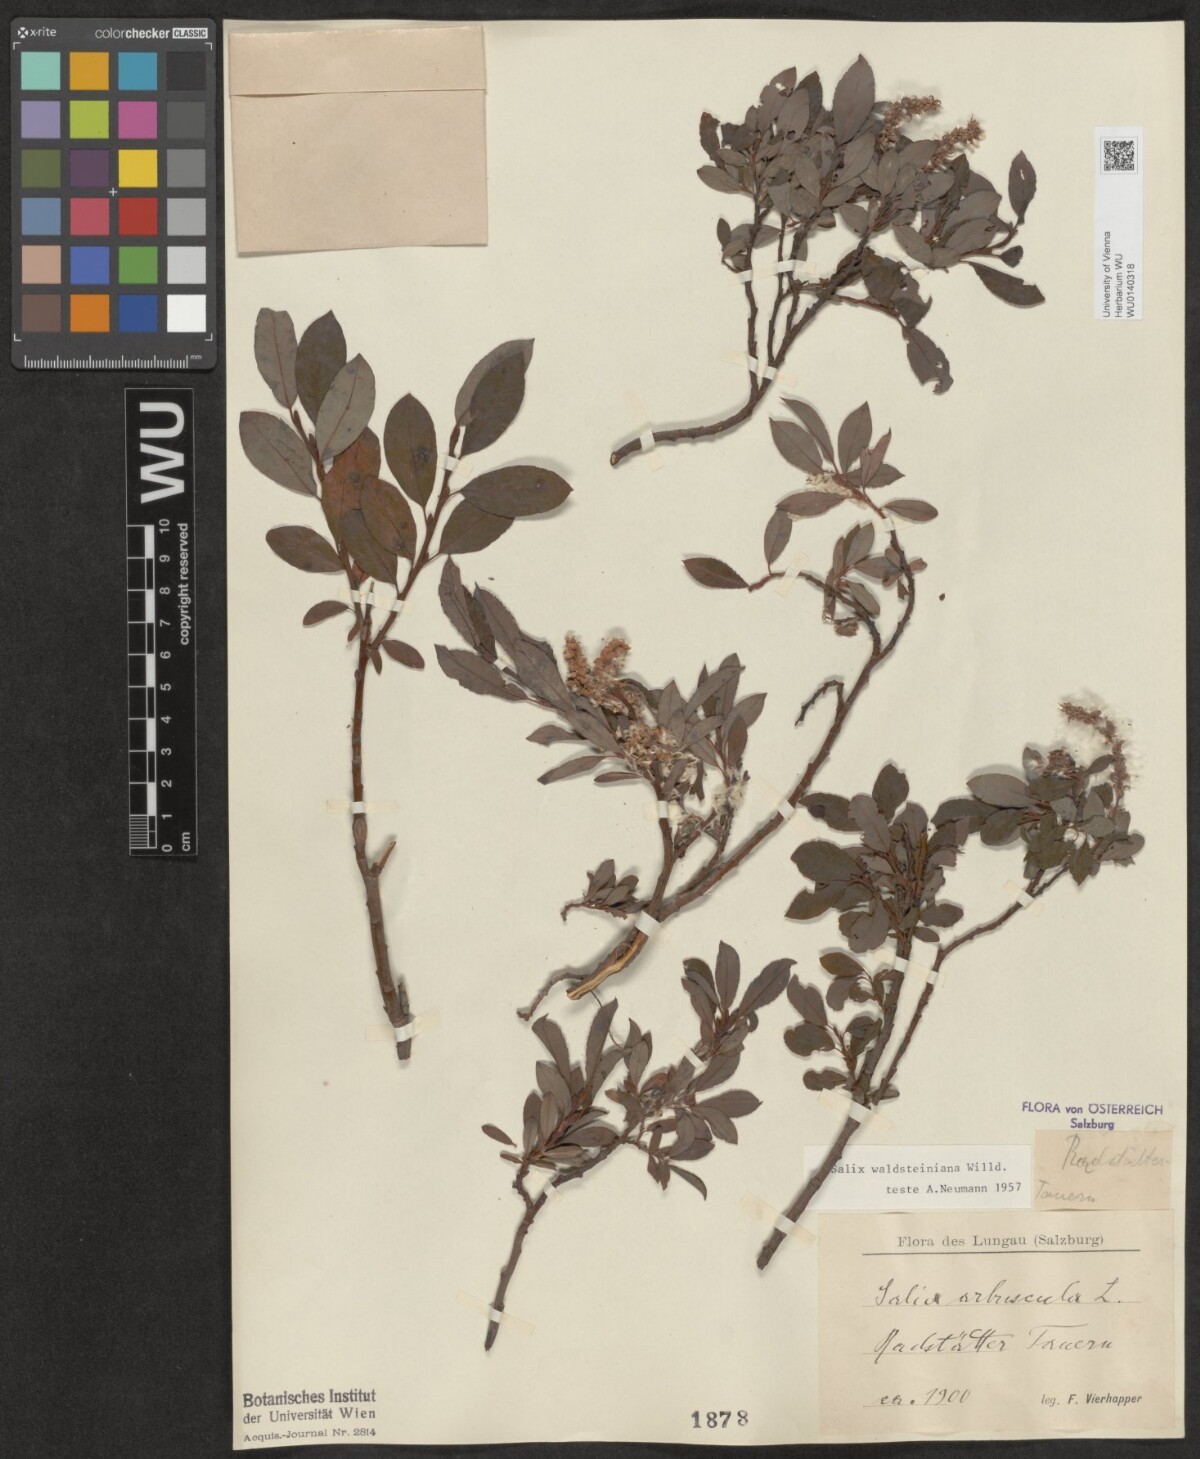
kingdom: Plantae
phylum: Tracheophyta
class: Magnoliopsida
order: Malpighiales
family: Salicaceae
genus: Salix
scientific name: Salix waldsteiniana
